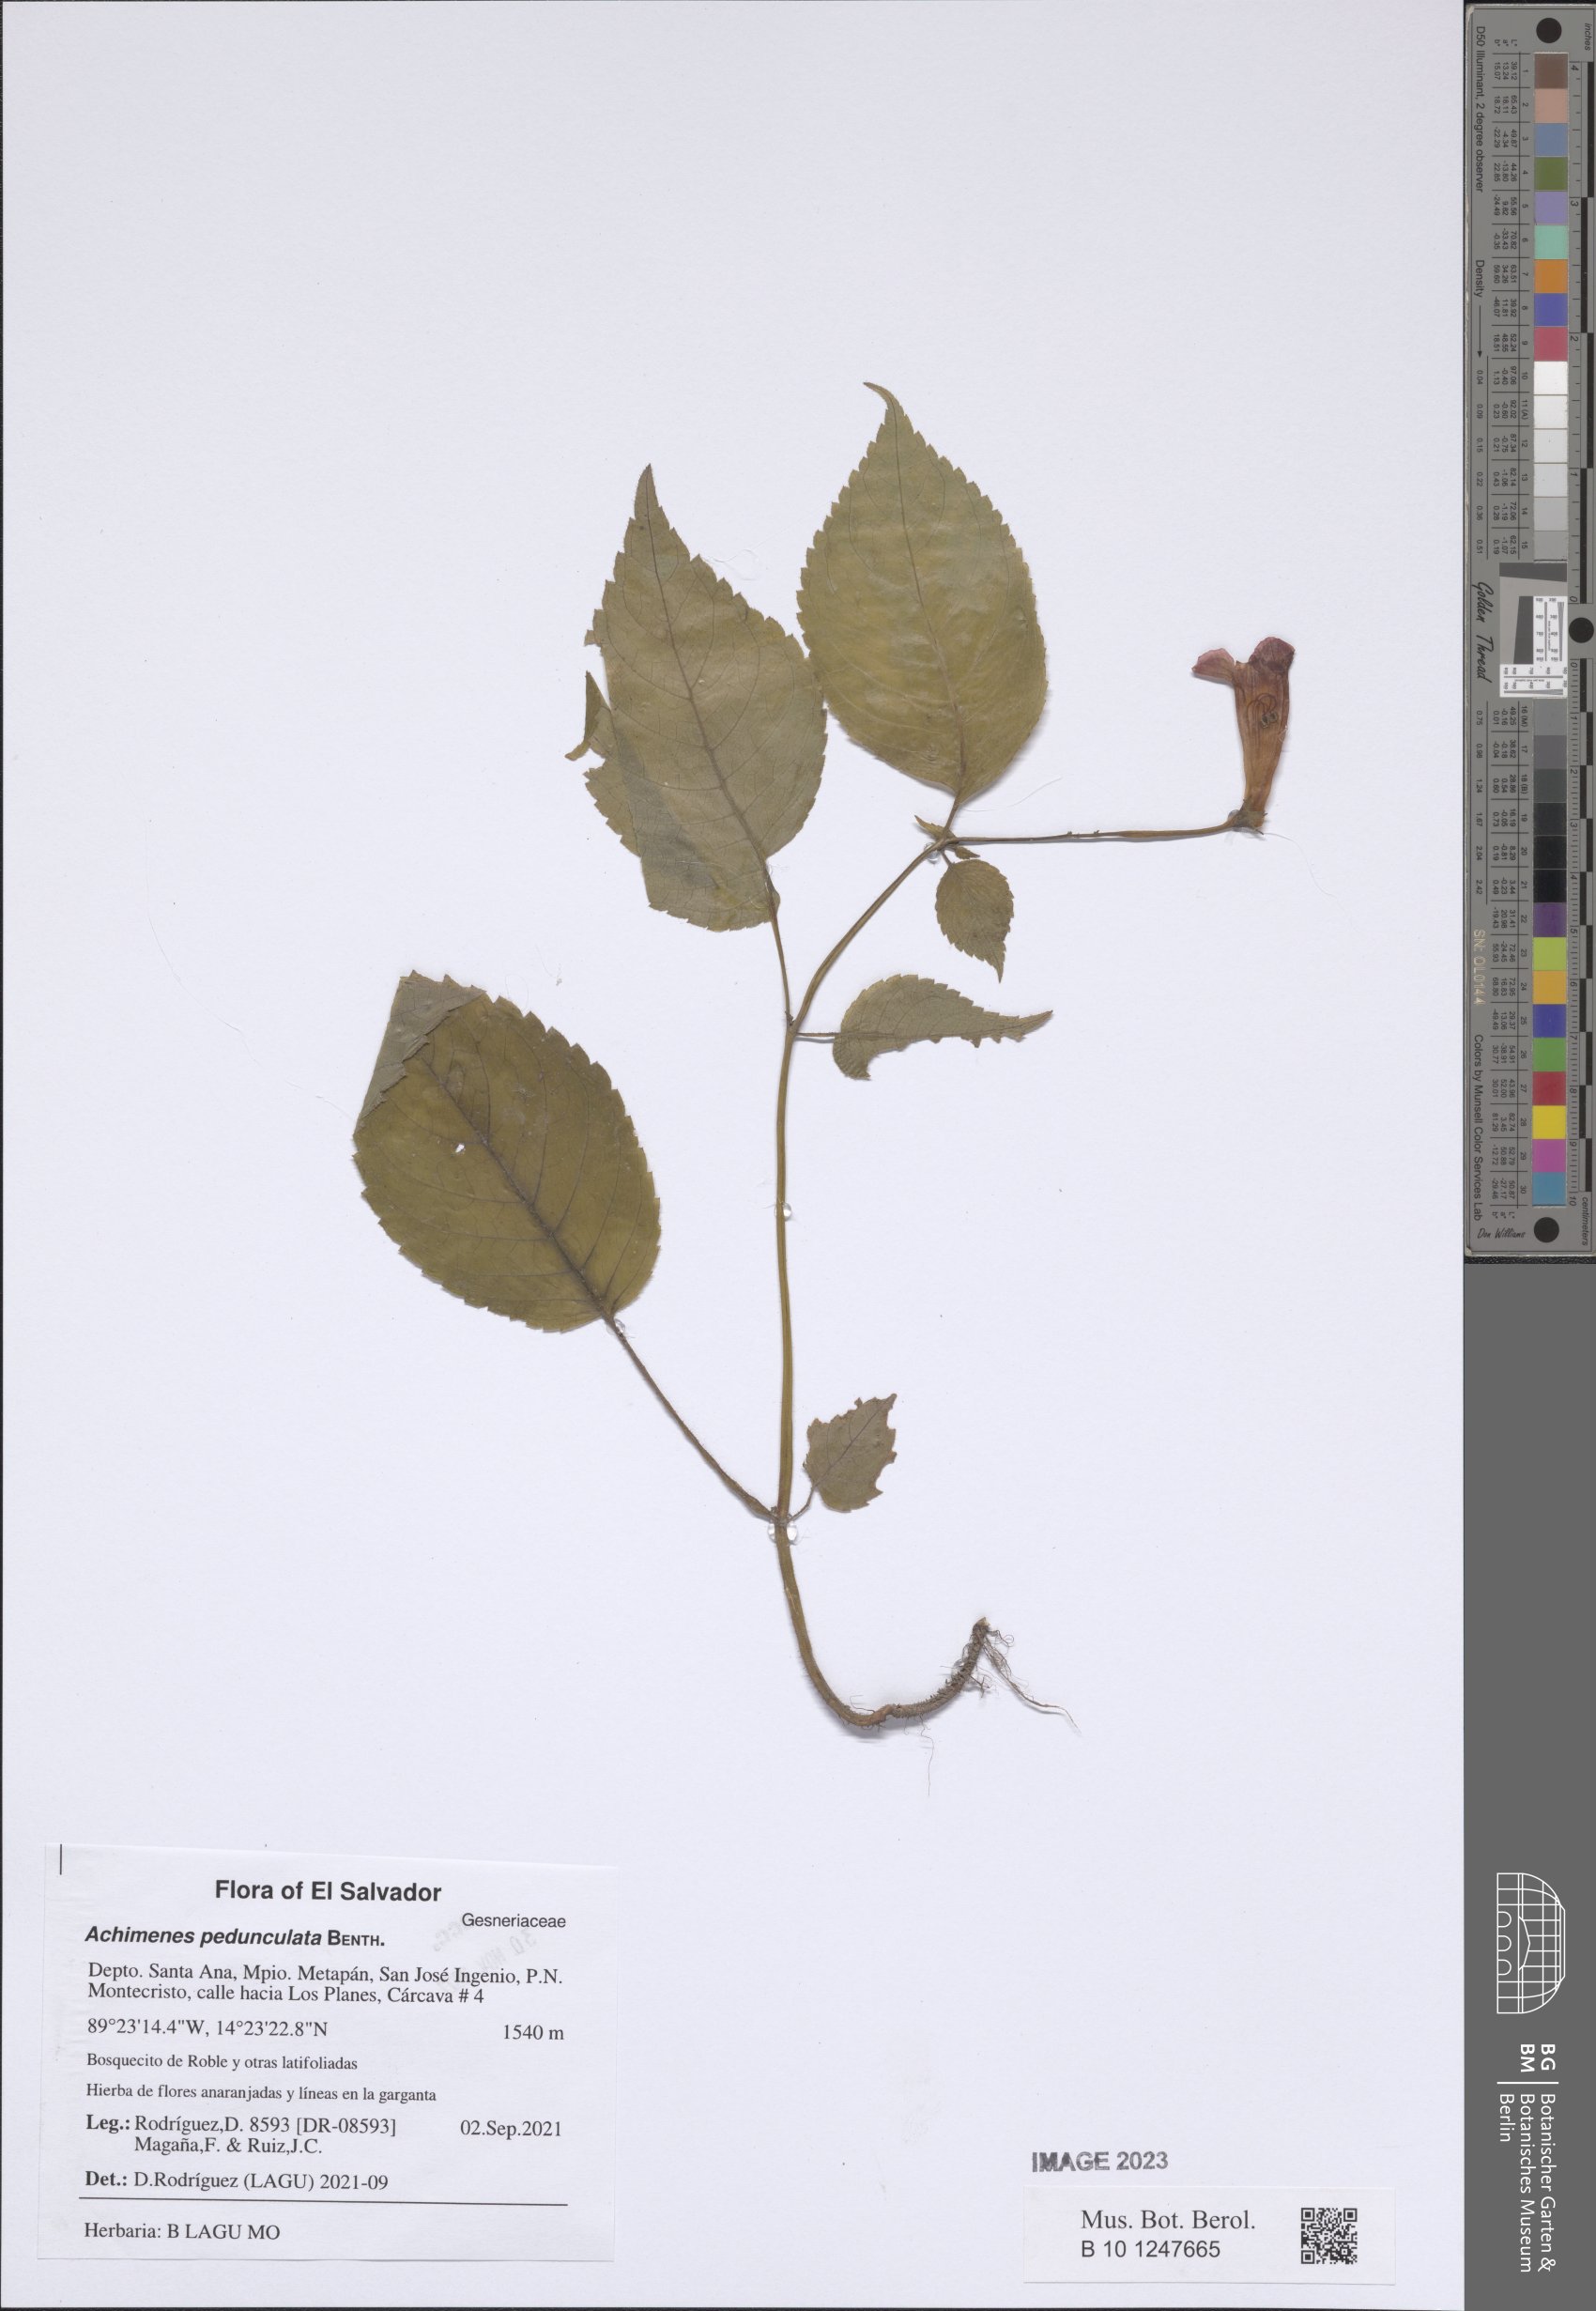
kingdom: Plantae
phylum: Tracheophyta
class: Magnoliopsida
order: Lamiales
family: Gesneriaceae
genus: Achimenes
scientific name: Achimenes pedunculata
